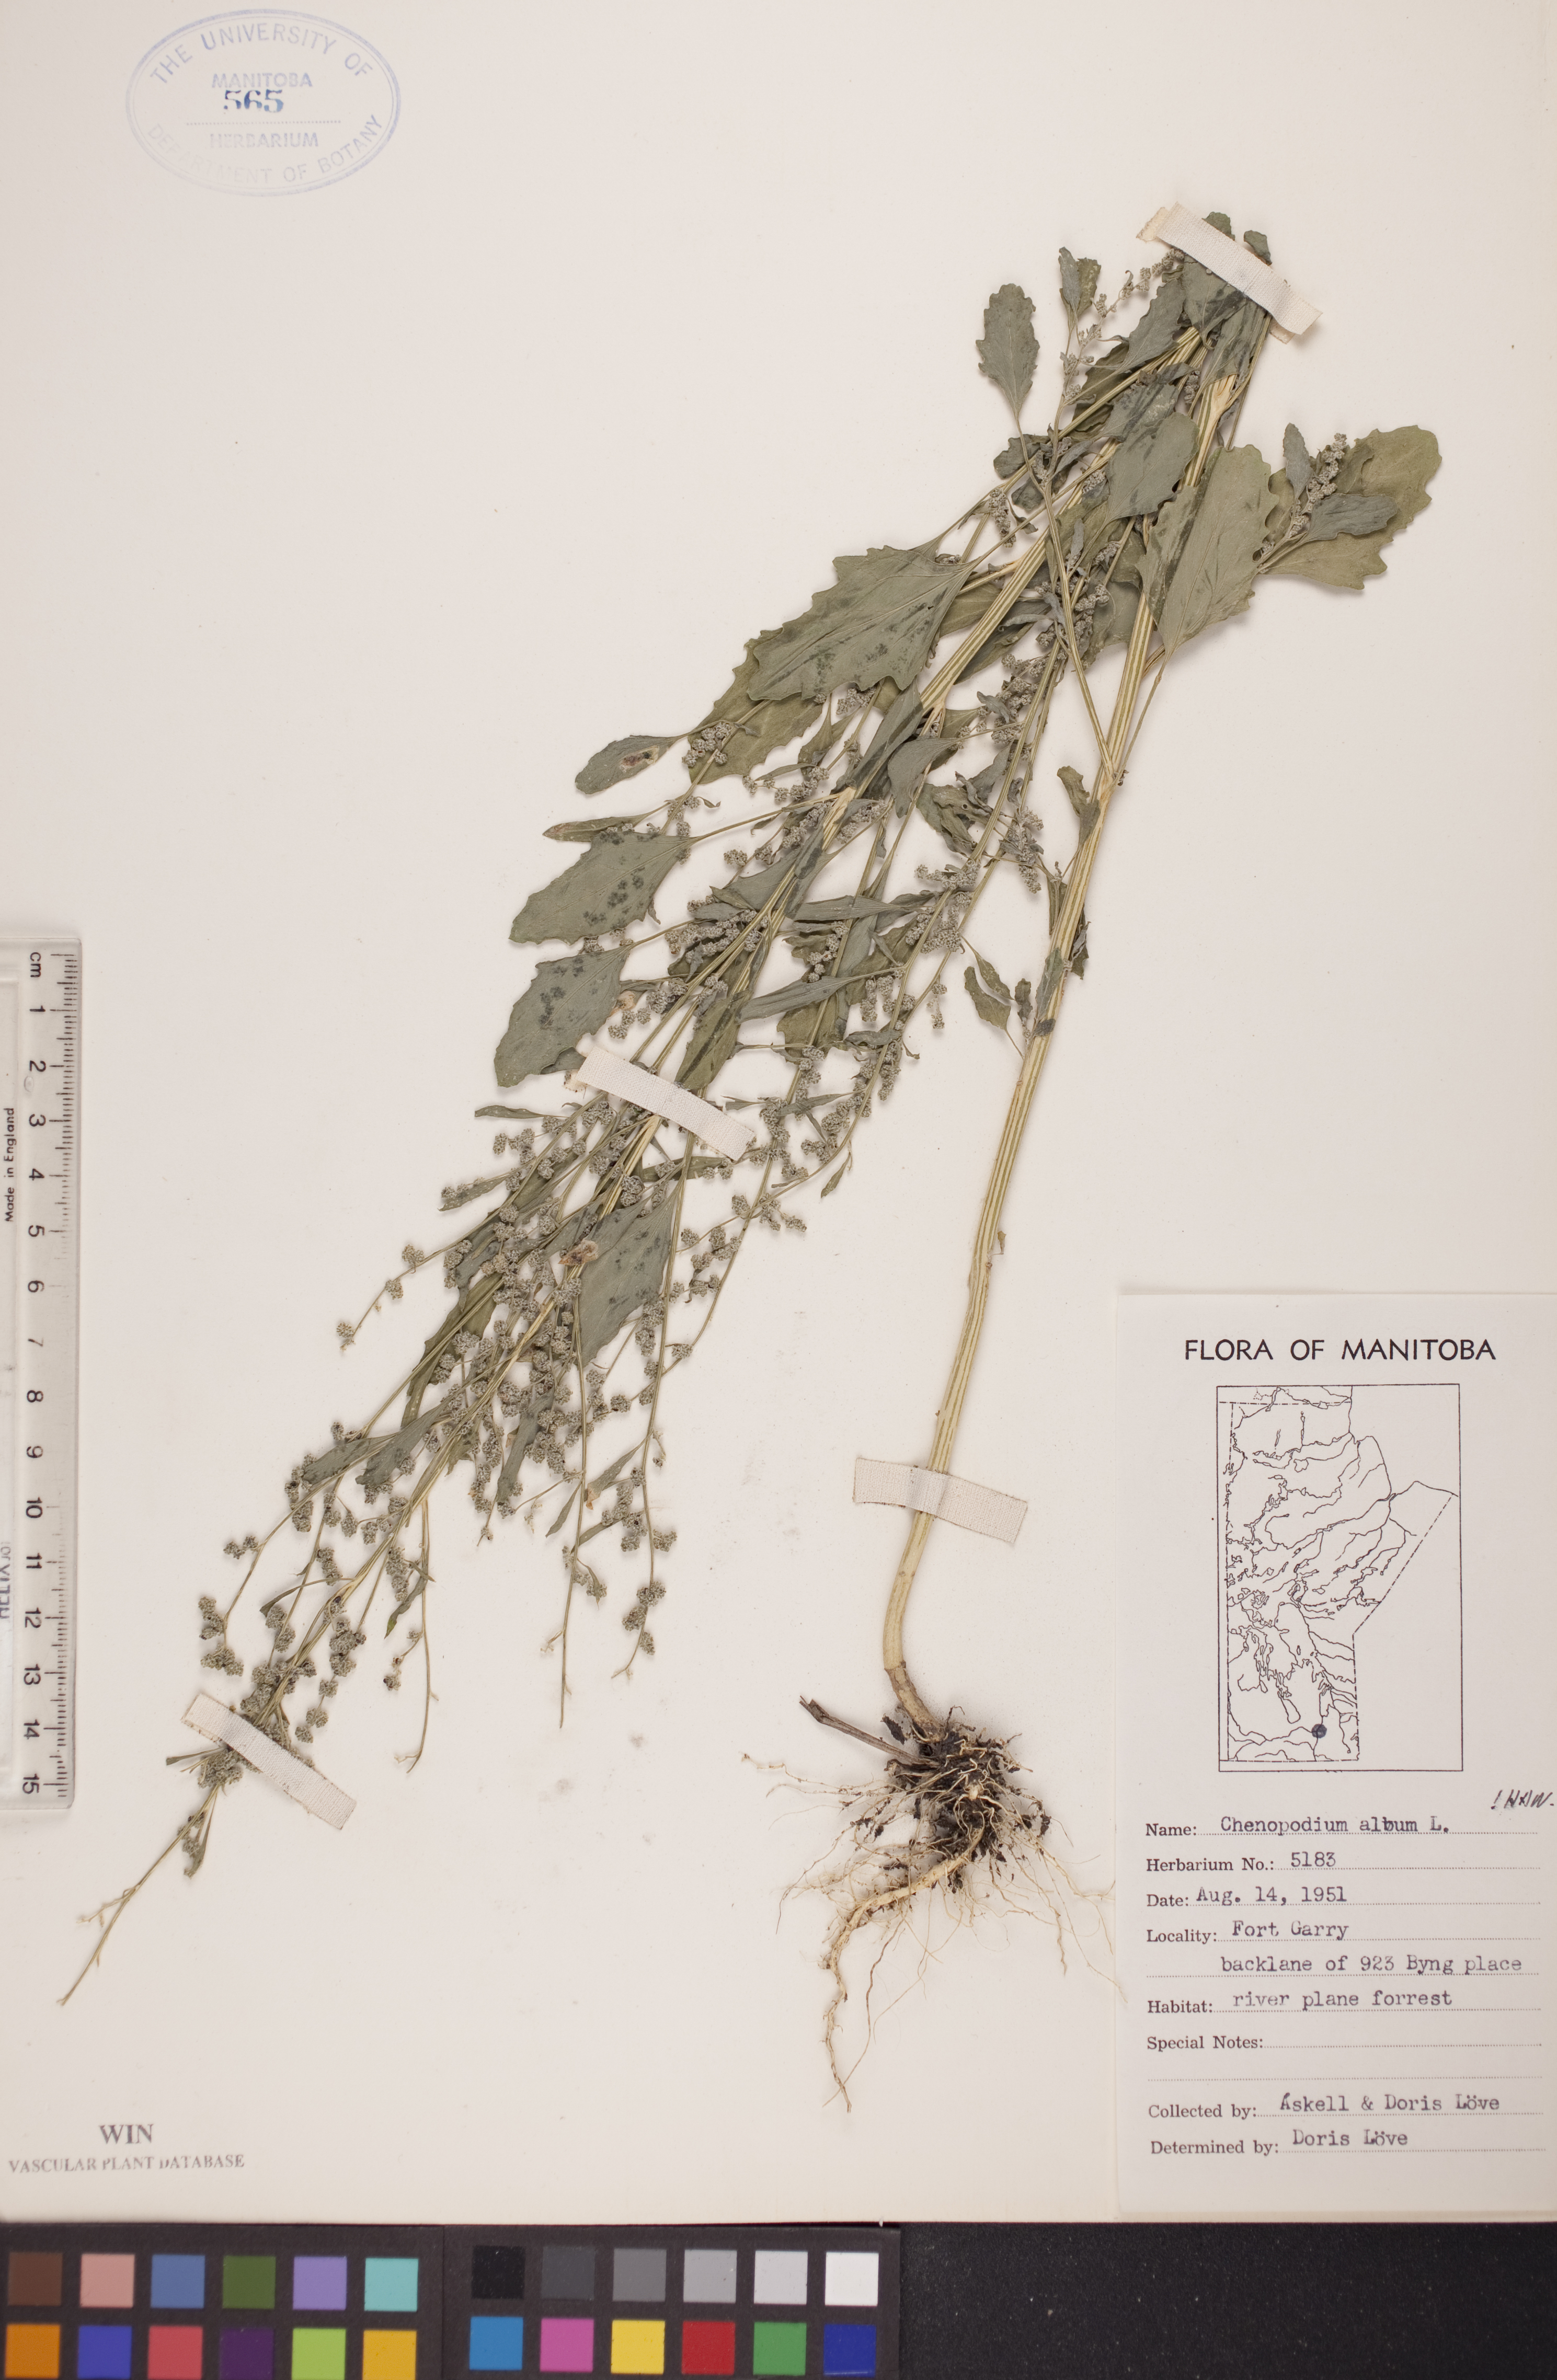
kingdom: Plantae
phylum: Tracheophyta
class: Magnoliopsida
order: Caryophyllales
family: Amaranthaceae
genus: Chenopodium
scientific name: Chenopodium album
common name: Fat-hen
